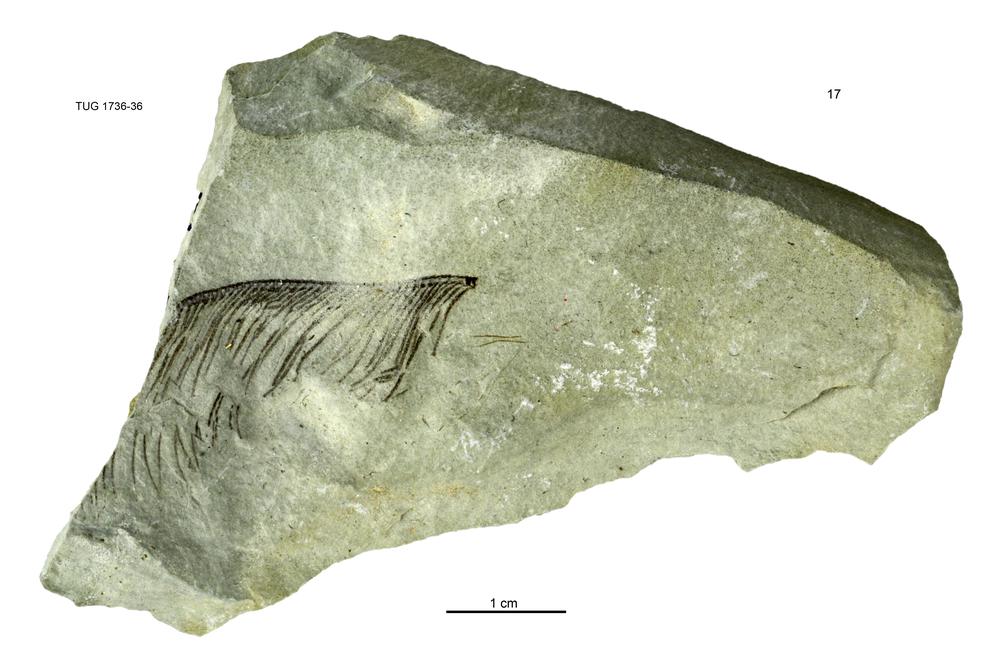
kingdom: Animalia
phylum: Echinodermata
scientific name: Echinodermata
